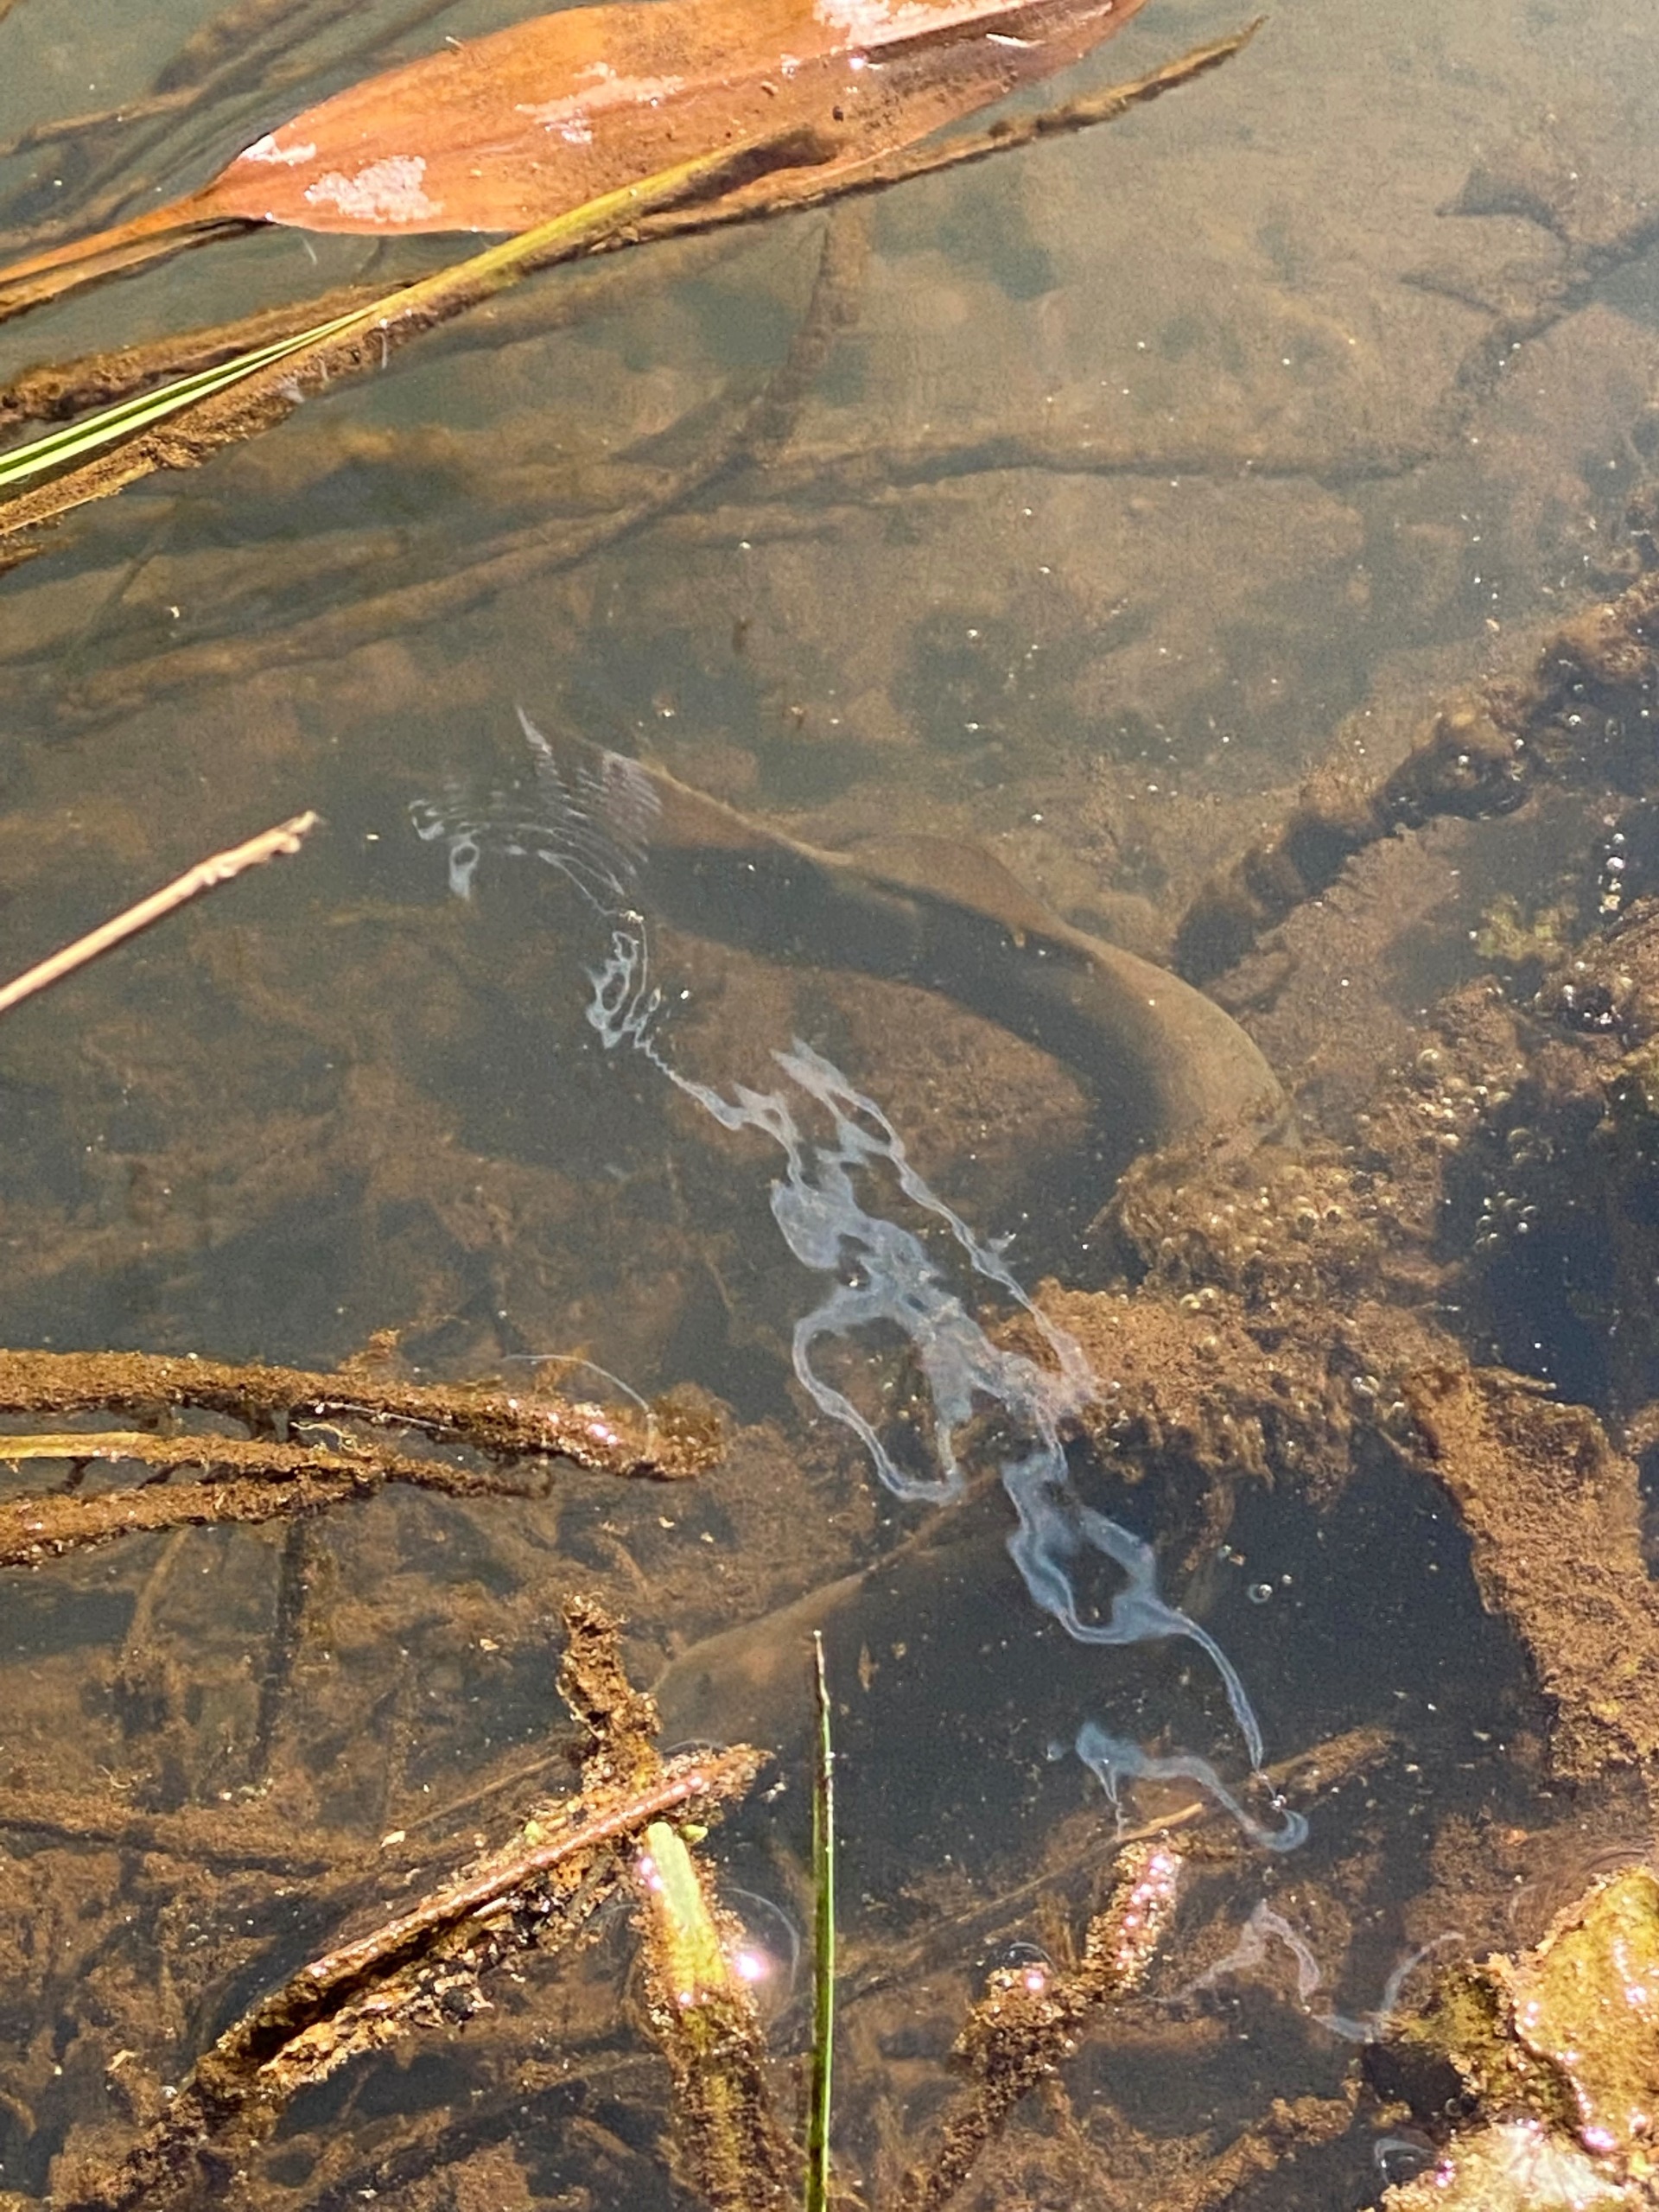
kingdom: Animalia
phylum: Chordata
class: Petromyzonti
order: Petromyzontiformes
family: Petromyzontidae
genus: Lampetra
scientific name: Lampetra planeri
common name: Bæklampret
